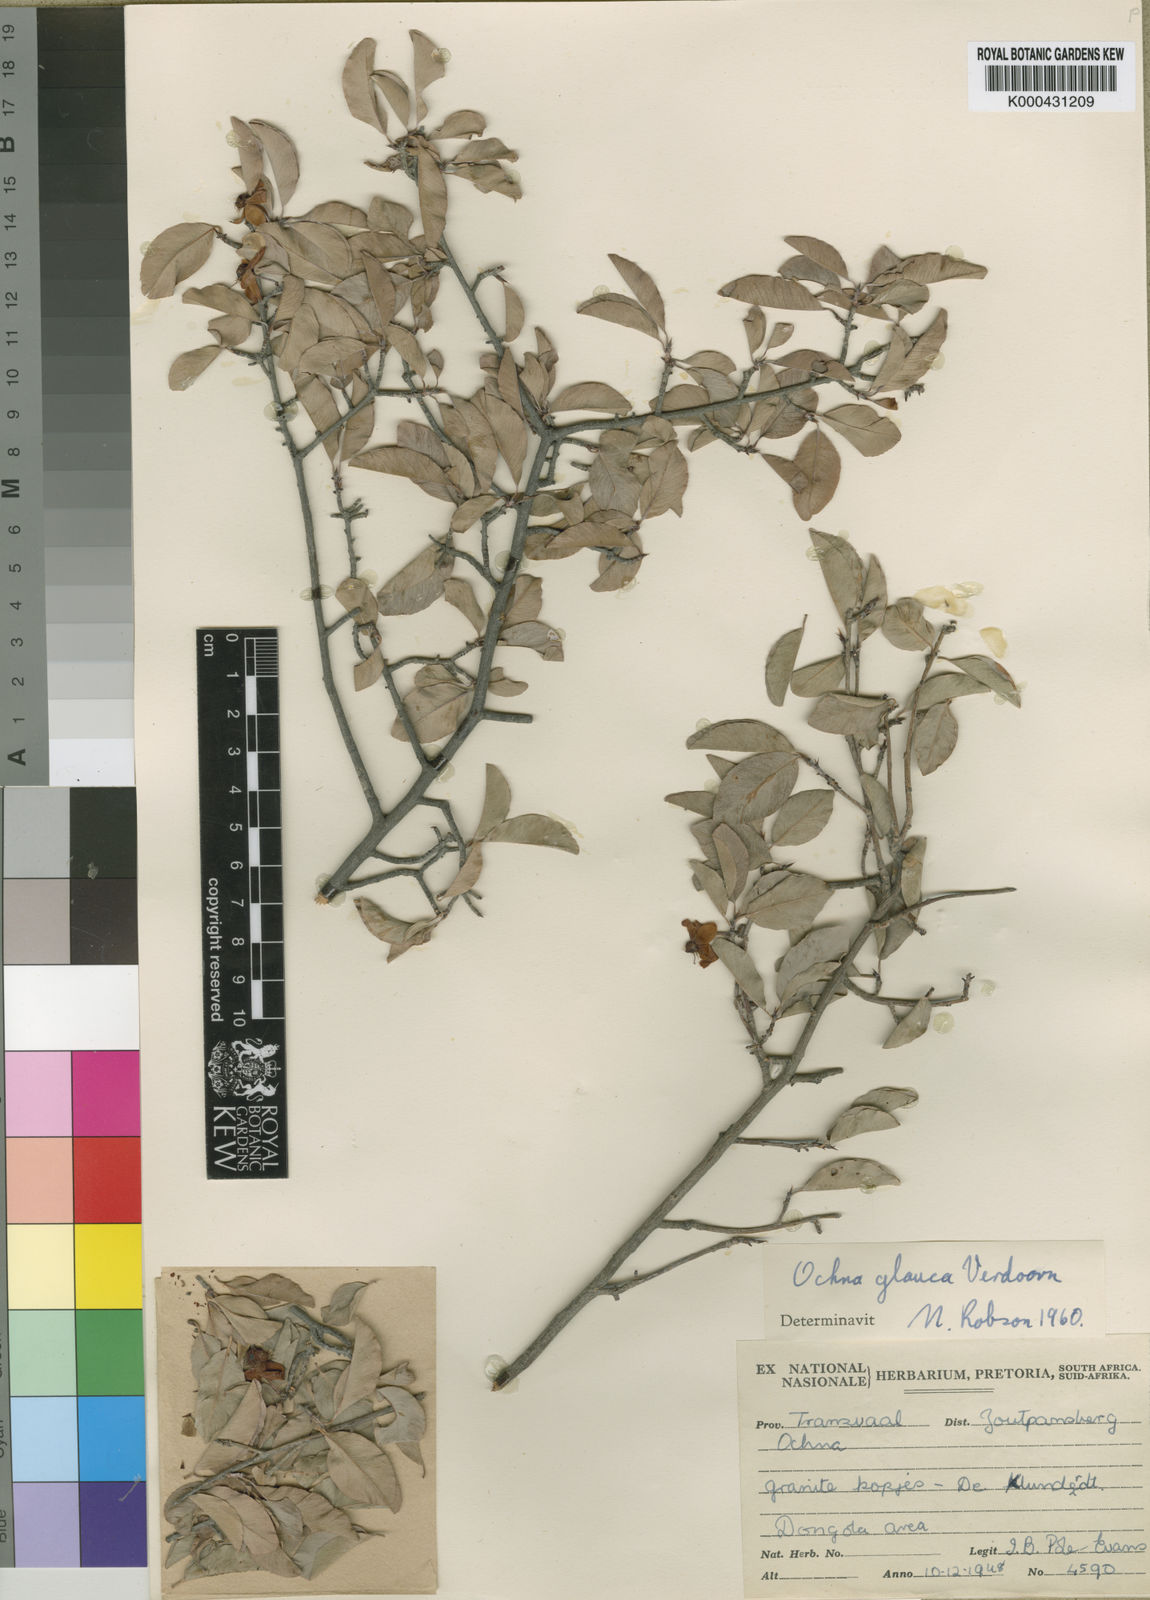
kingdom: Plantae
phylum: Tracheophyta
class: Magnoliopsida
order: Malpighiales
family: Ochnaceae
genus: Ochna
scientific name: Ochna glauca
